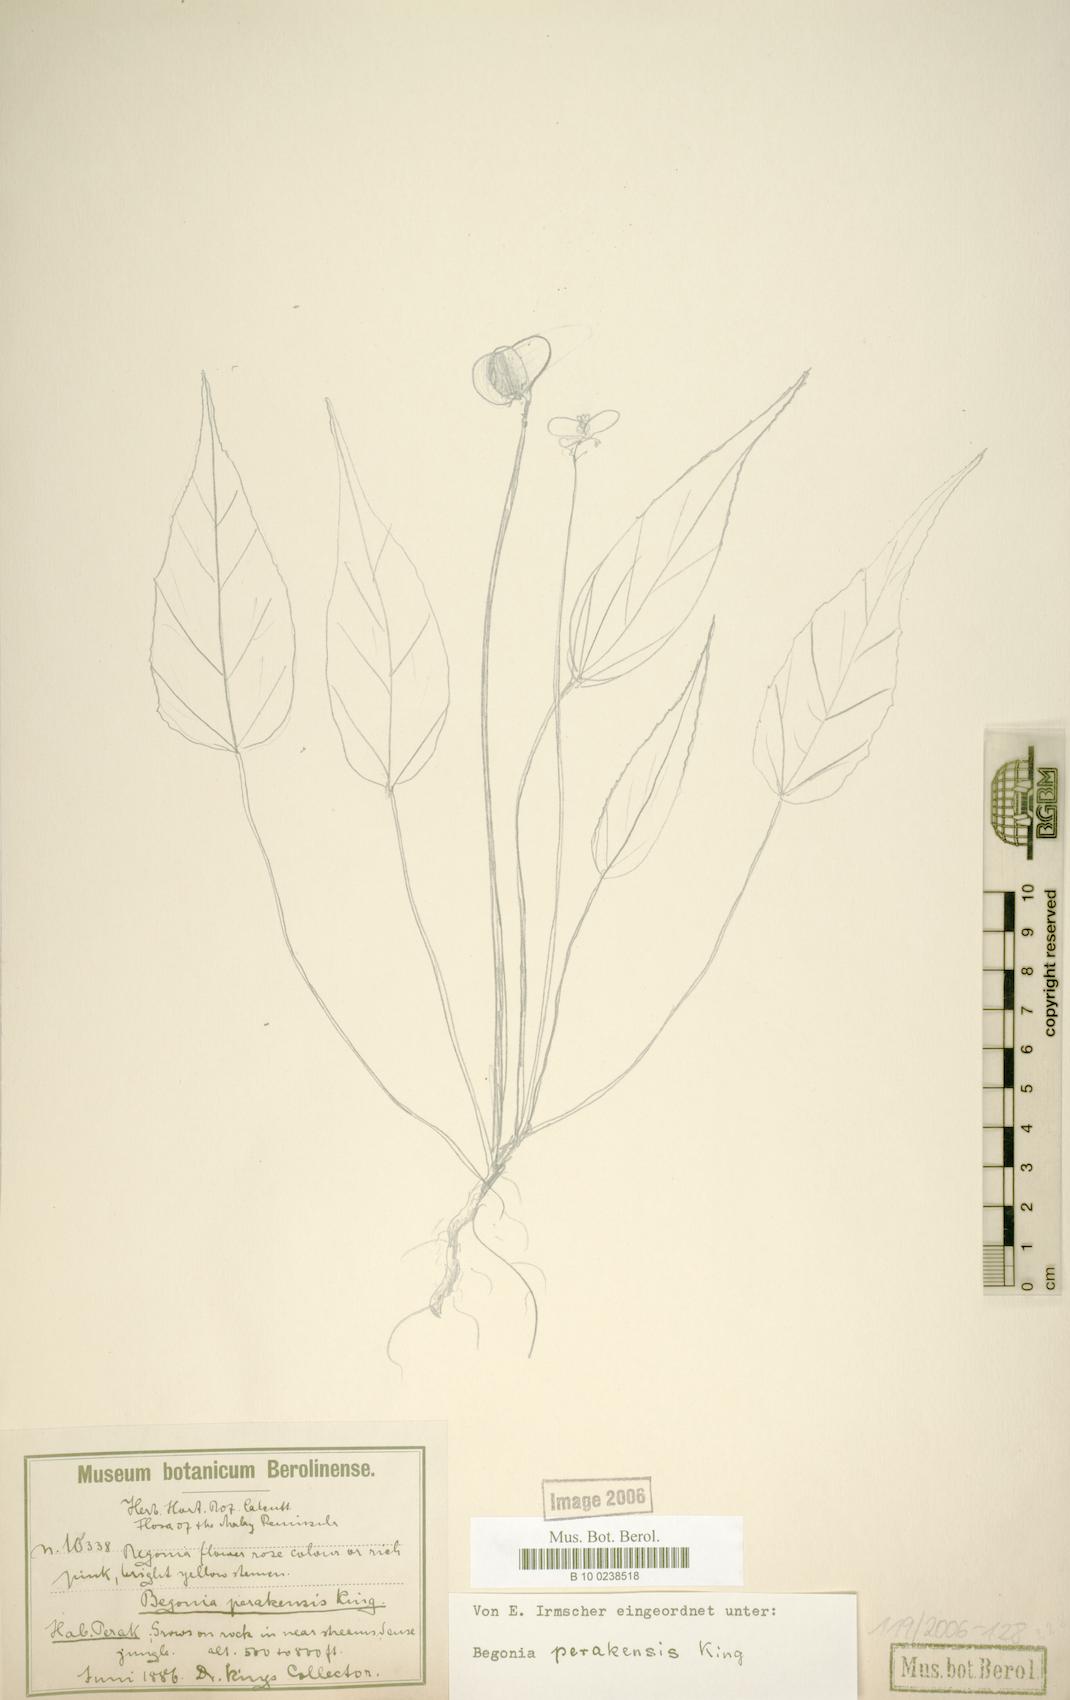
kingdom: Plantae
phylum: Tracheophyta
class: Magnoliopsida
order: Cucurbitales
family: Begoniaceae
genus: Begonia
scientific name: Begonia perakensis
